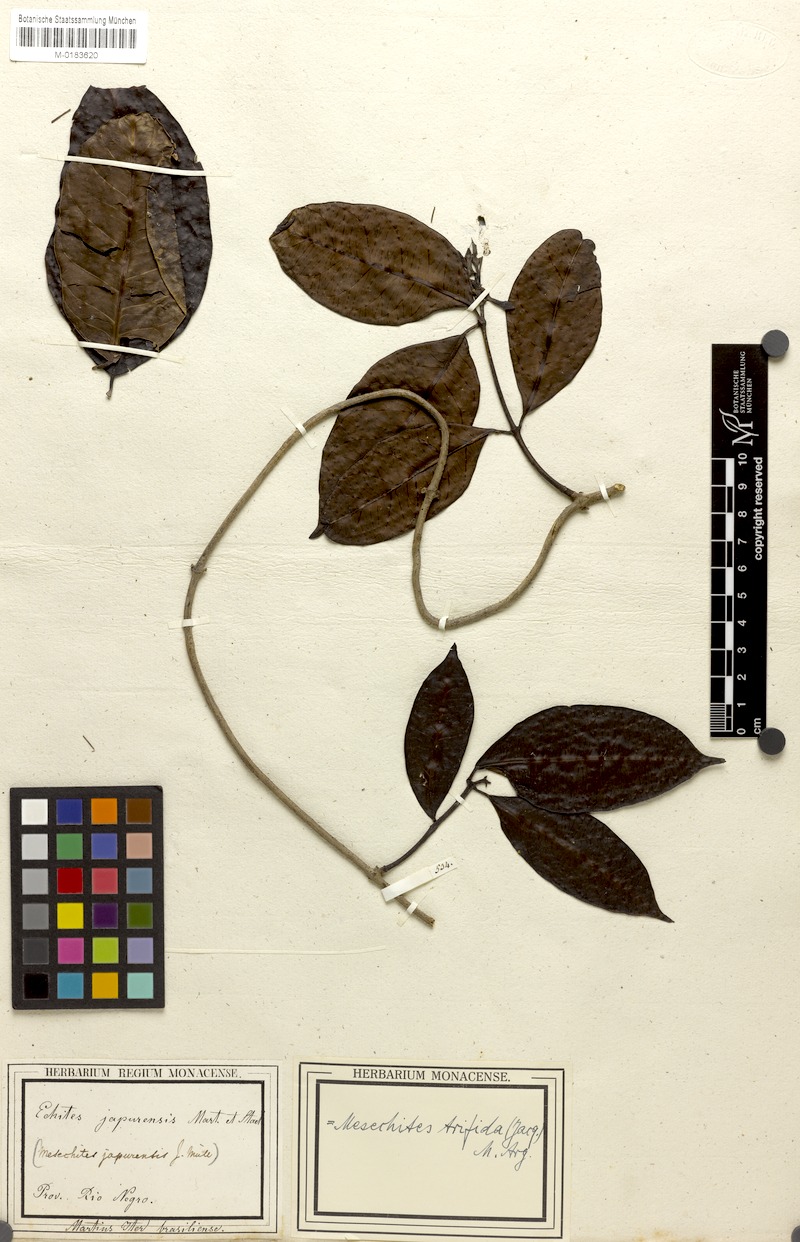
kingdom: Plantae
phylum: Tracheophyta
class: Magnoliopsida
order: Gentianales
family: Apocynaceae
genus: Mesechites
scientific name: Mesechites trifidus
